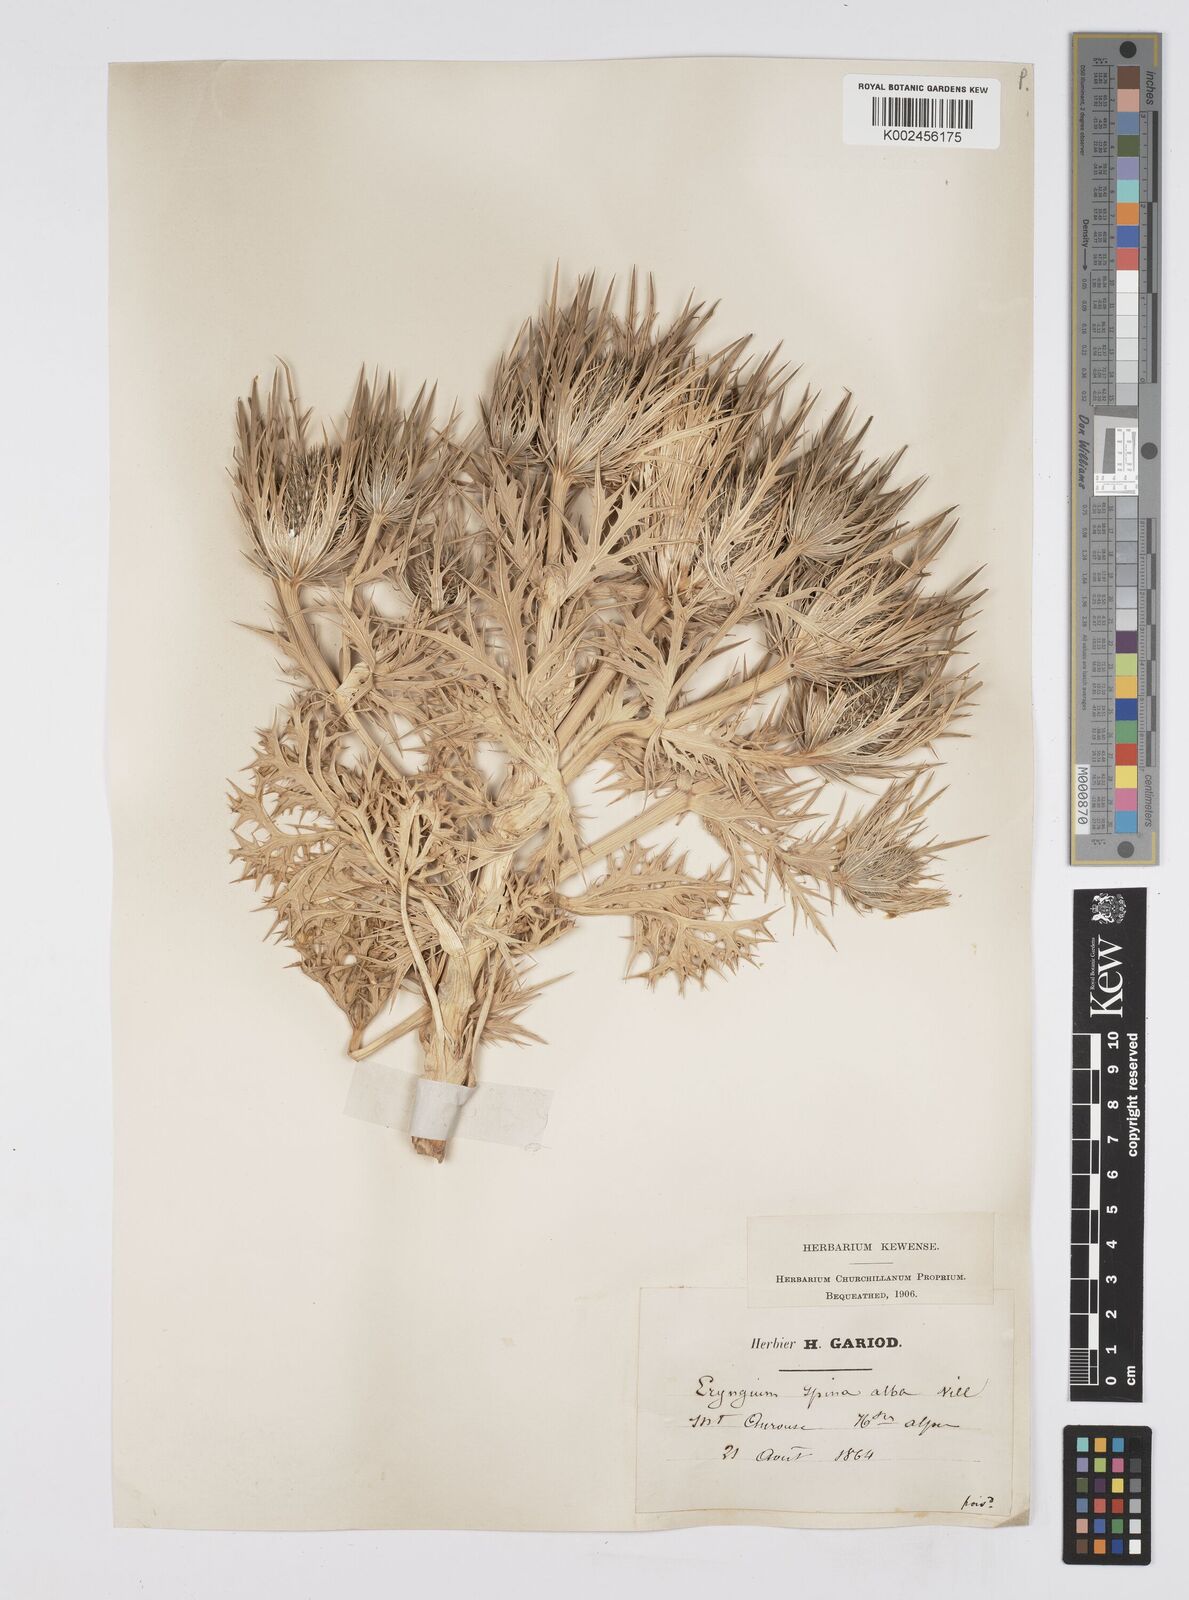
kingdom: Plantae
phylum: Tracheophyta
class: Magnoliopsida
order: Apiales
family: Apiaceae
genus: Eryngium
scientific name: Eryngium spinalba
